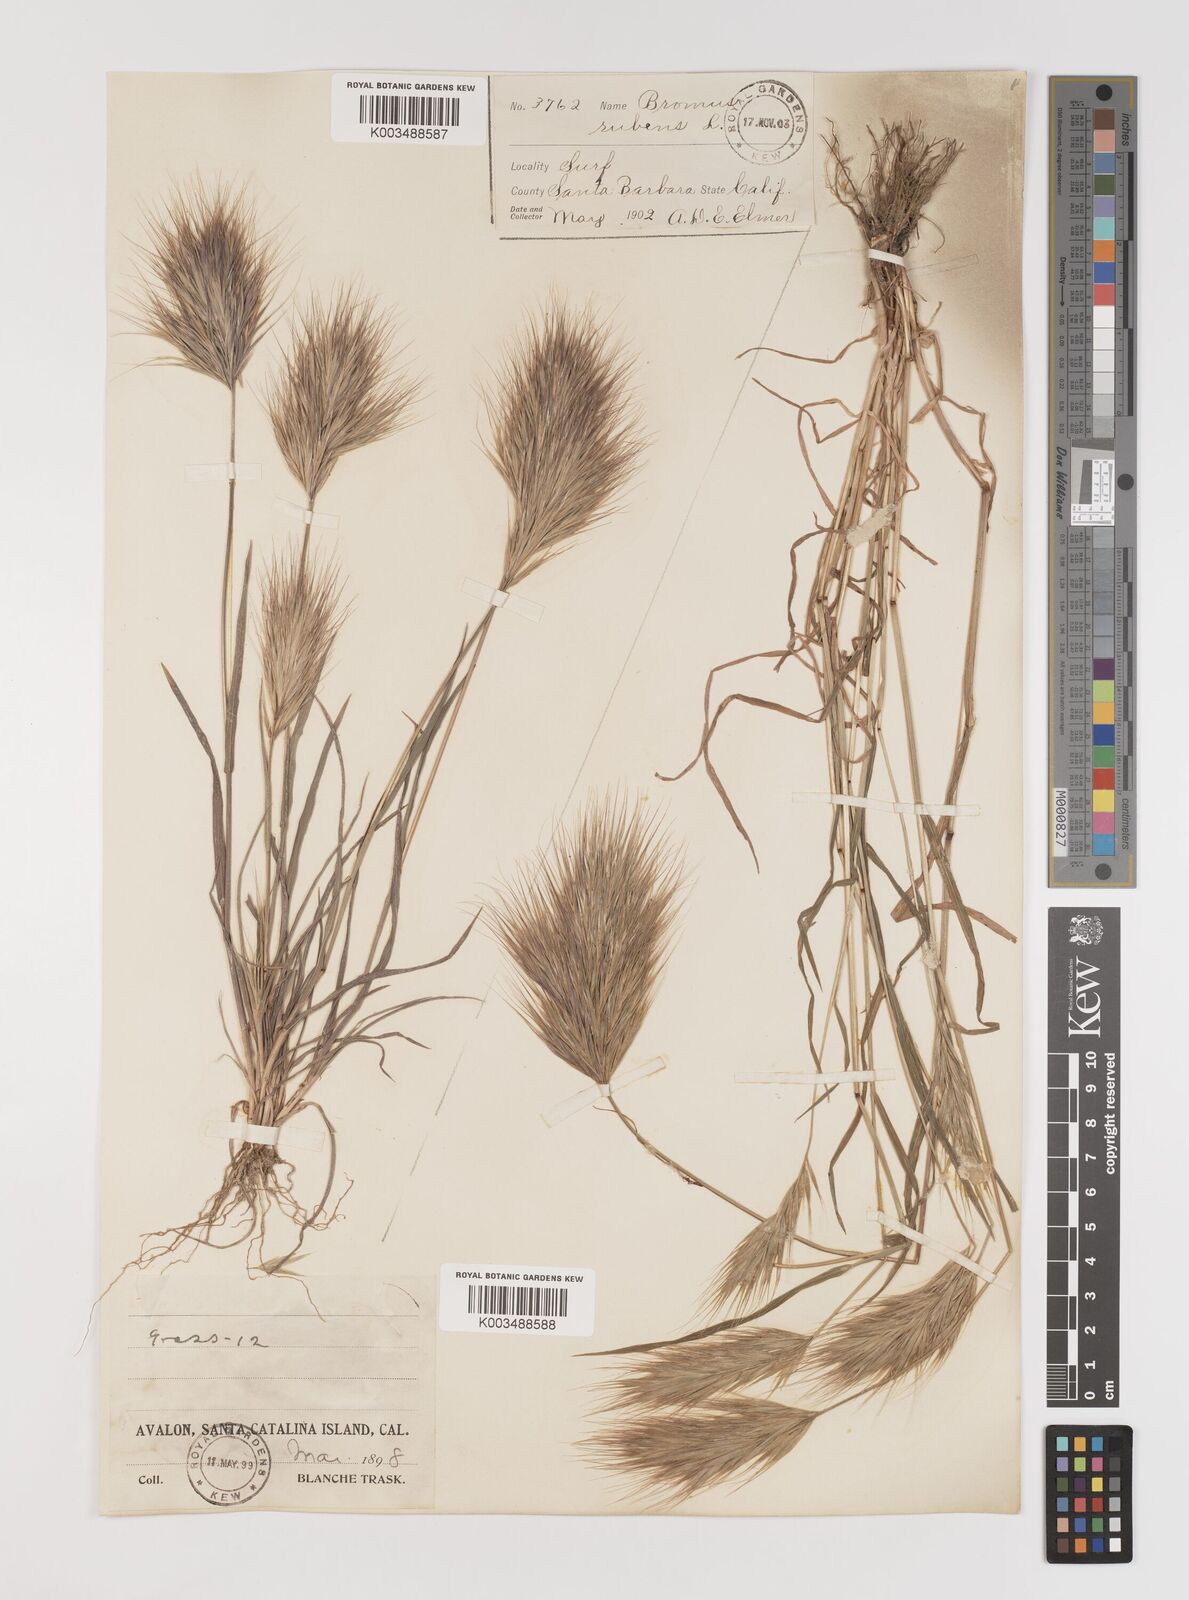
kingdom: Plantae
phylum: Tracheophyta
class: Liliopsida
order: Poales
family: Poaceae
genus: Bromus
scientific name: Bromus rubens
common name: Red brome
